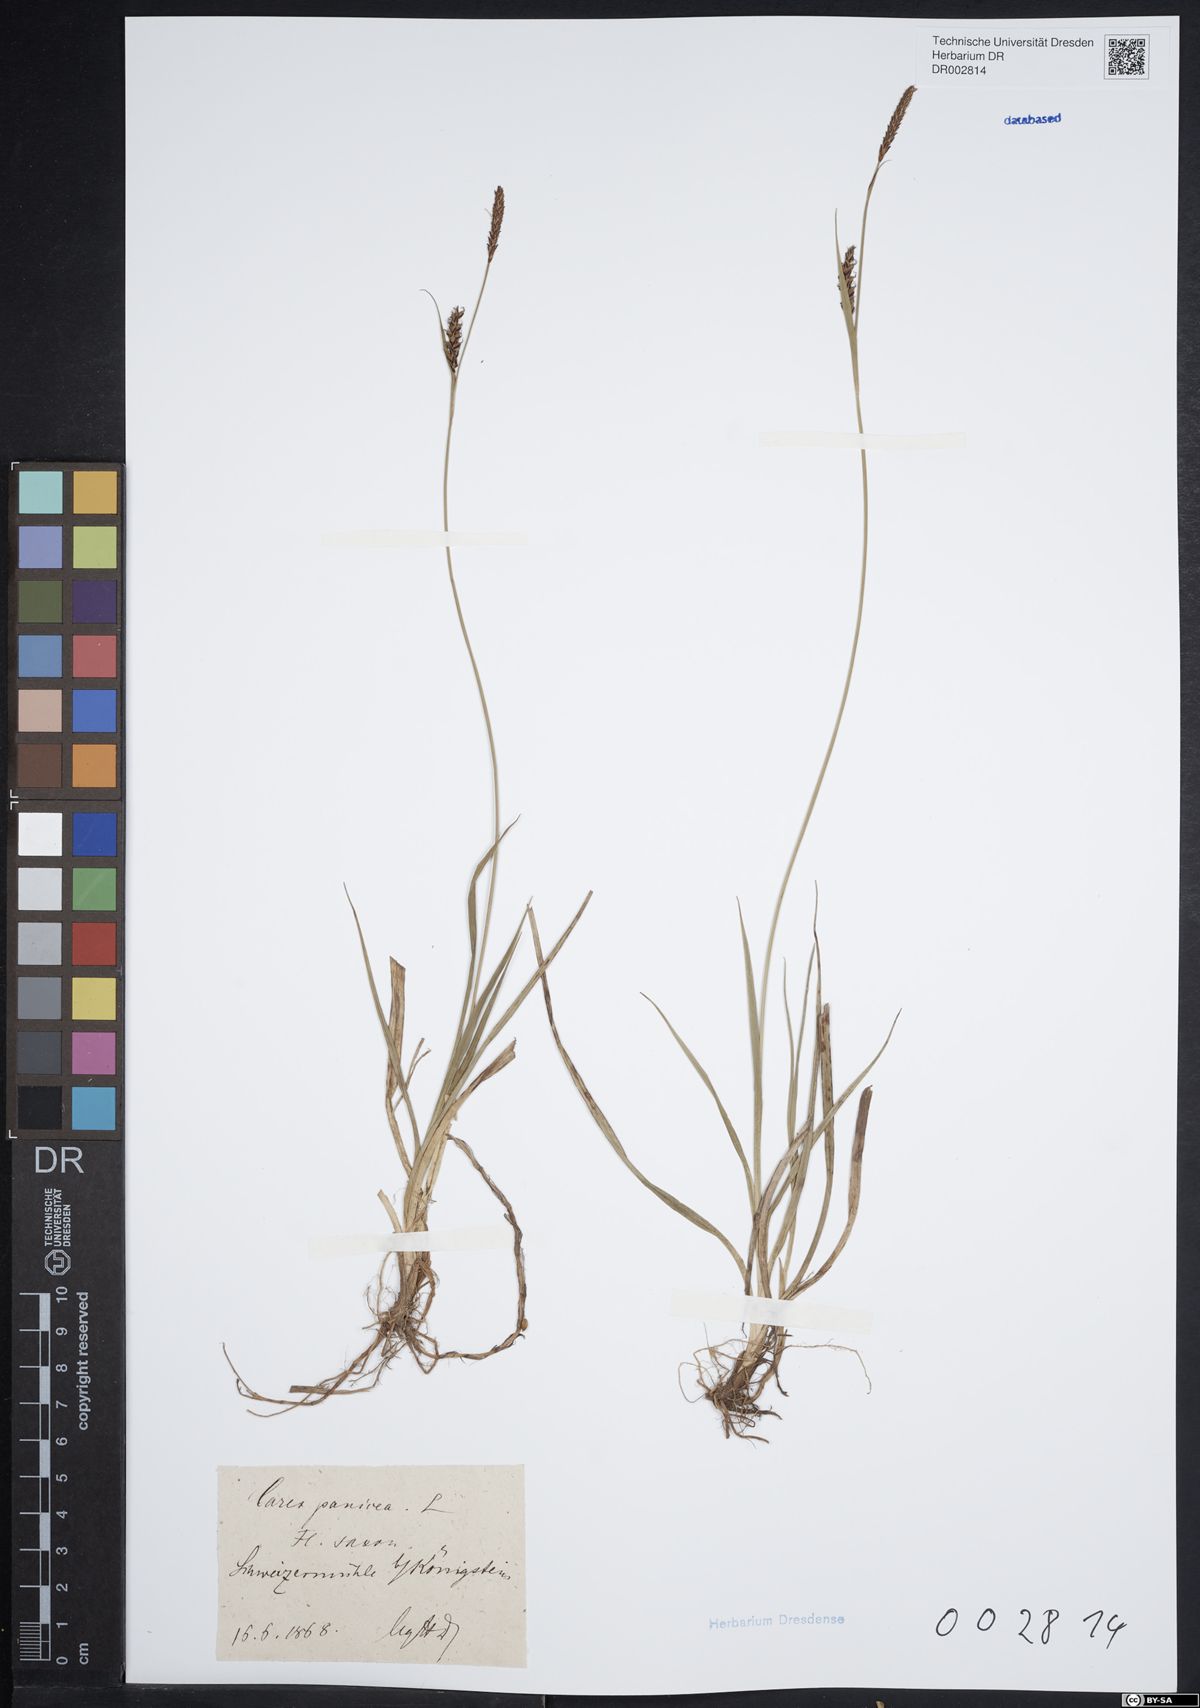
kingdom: Plantae
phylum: Tracheophyta
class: Liliopsida
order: Poales
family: Cyperaceae
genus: Carex
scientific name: Carex panicea
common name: Carnation sedge
